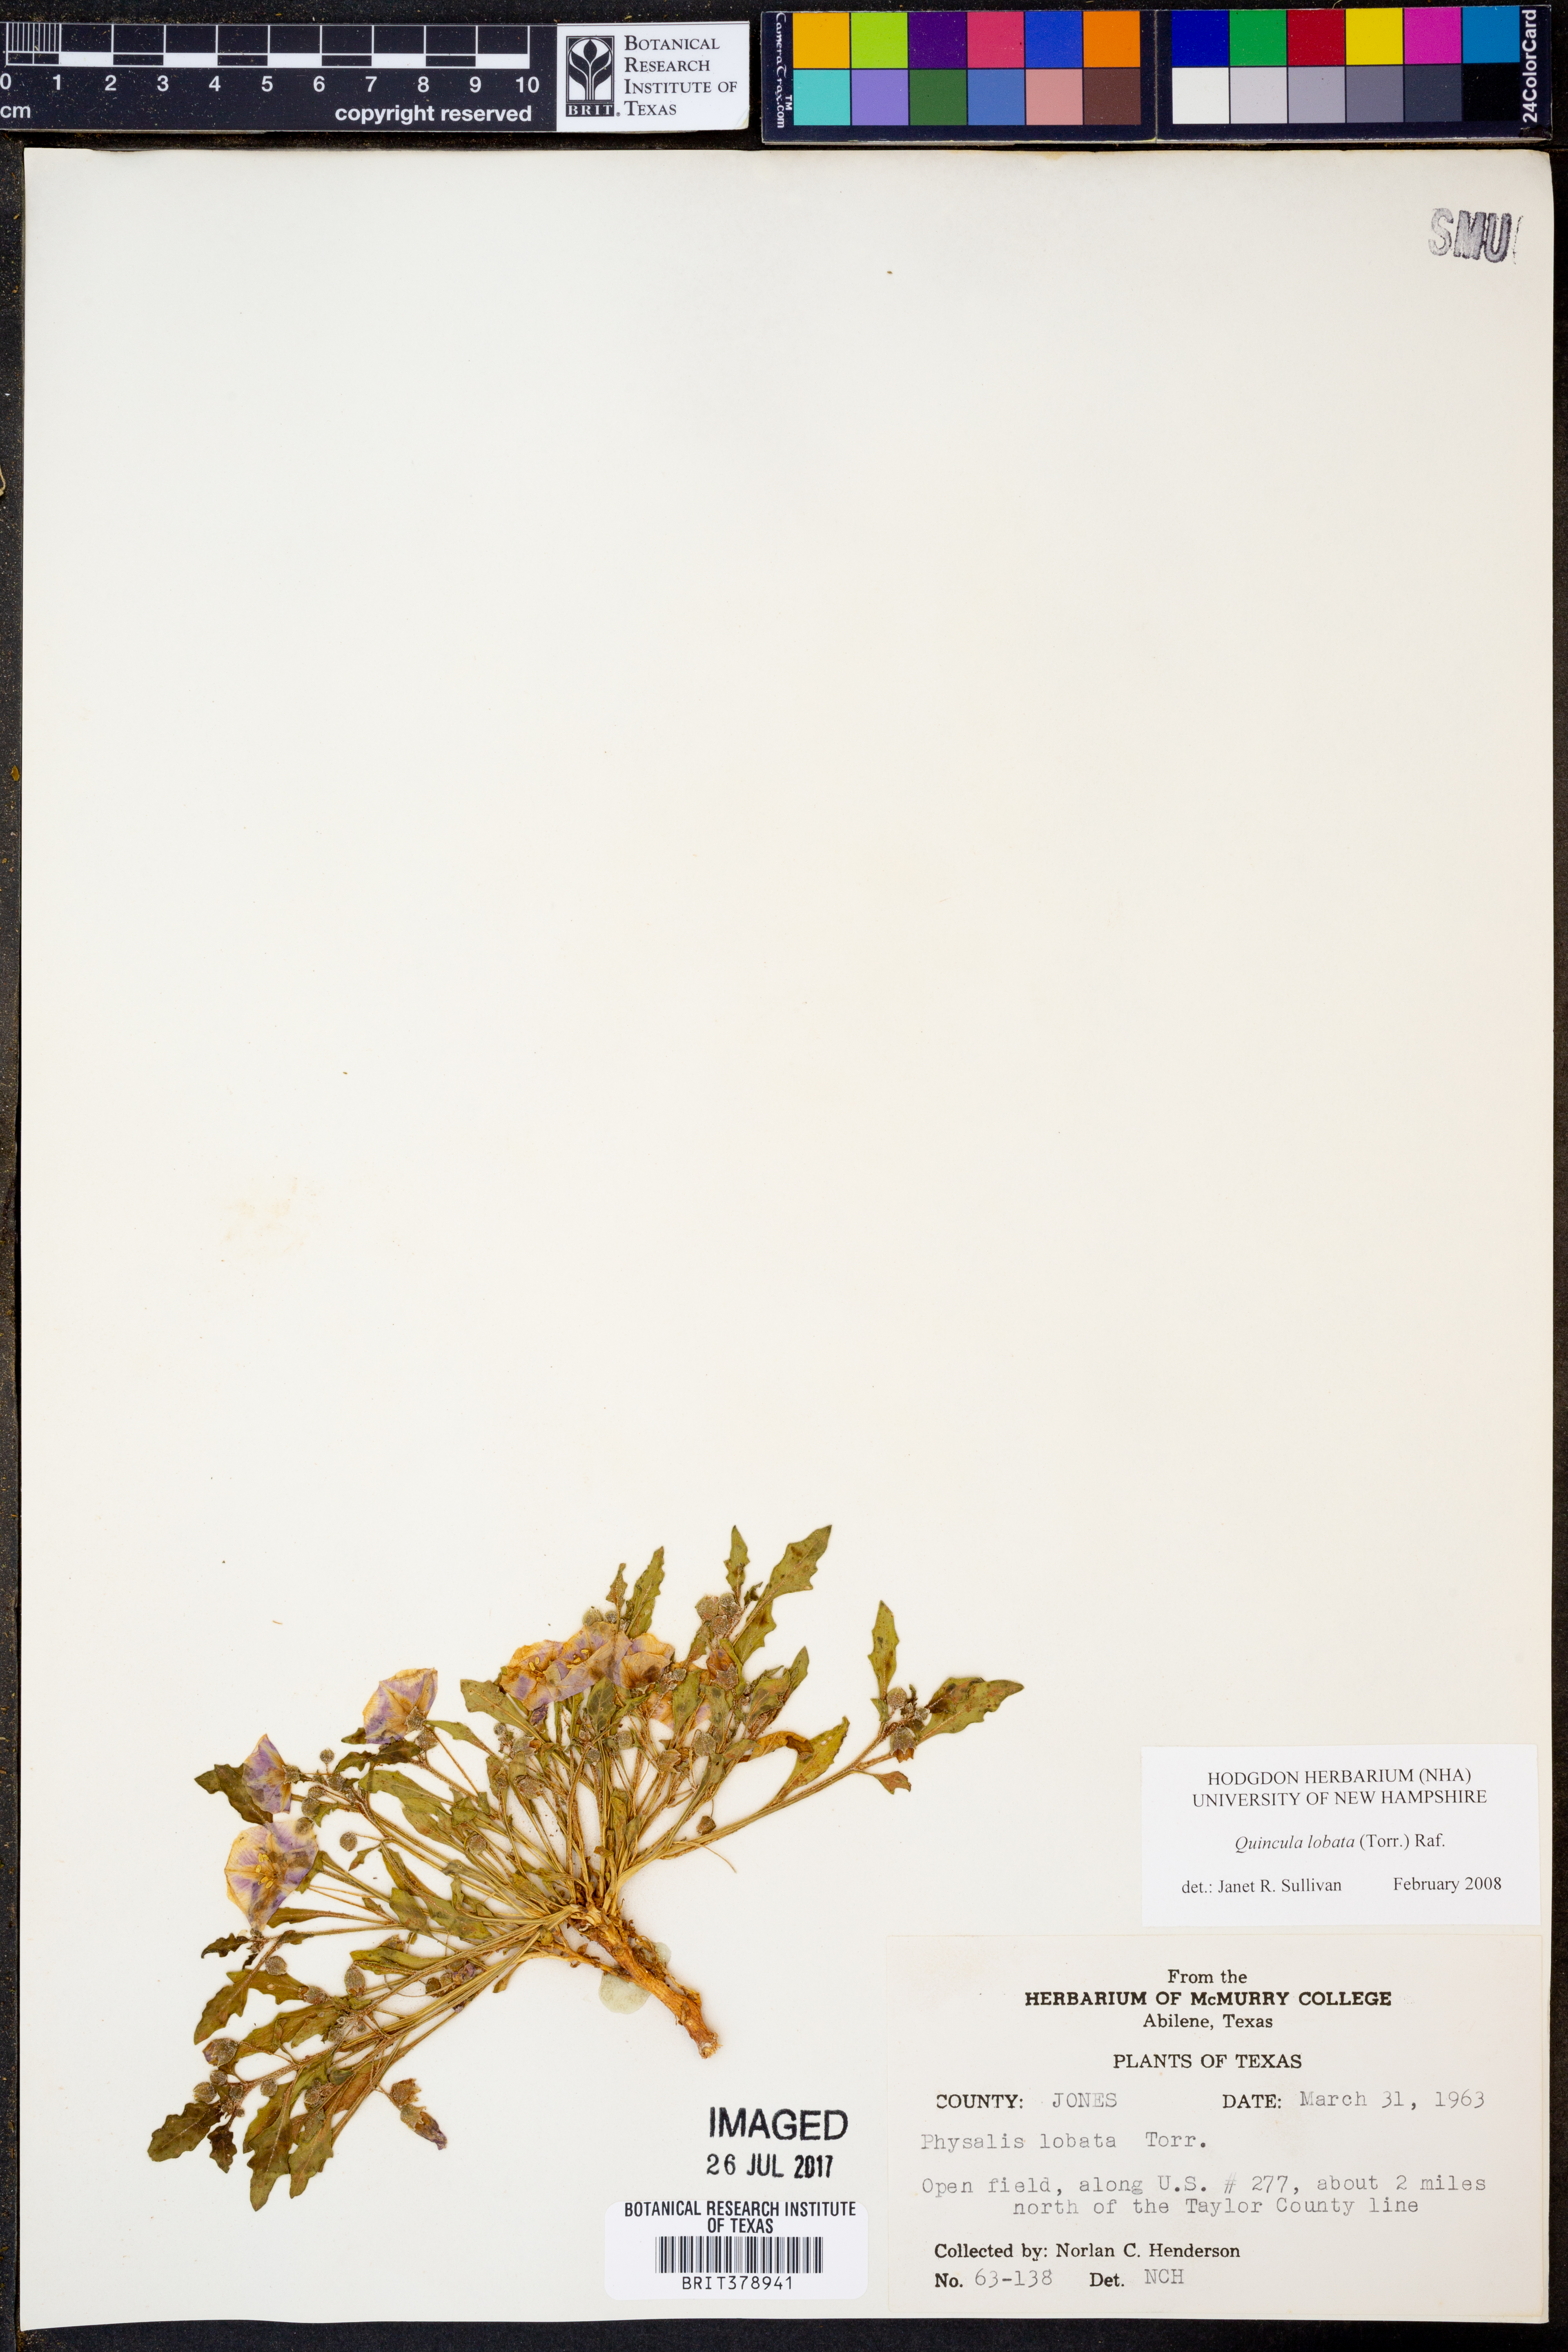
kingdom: Plantae
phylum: Tracheophyta
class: Magnoliopsida
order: Solanales
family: Solanaceae
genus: Quincula
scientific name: Quincula lobata
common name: Purple-ground-cherry
